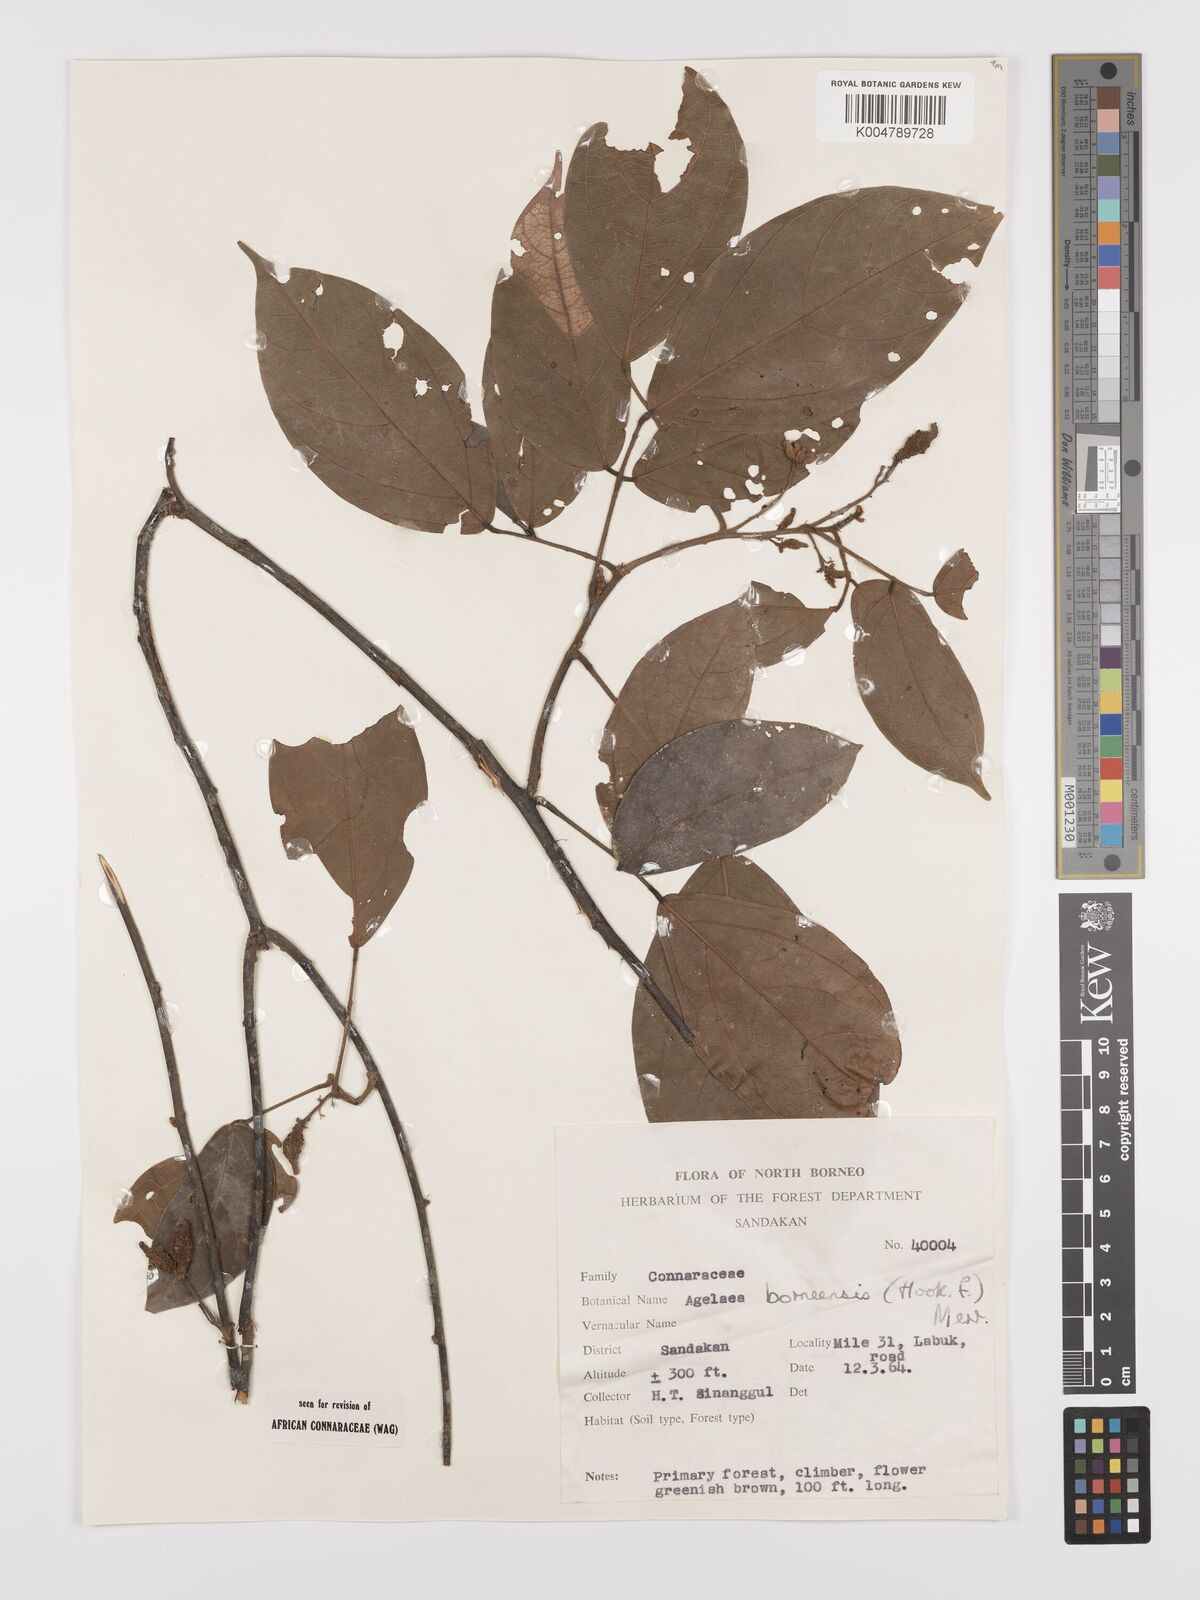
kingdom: Plantae
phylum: Tracheophyta
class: Magnoliopsida
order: Oxalidales
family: Connaraceae
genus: Agelaea
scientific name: Agelaea borneensis
